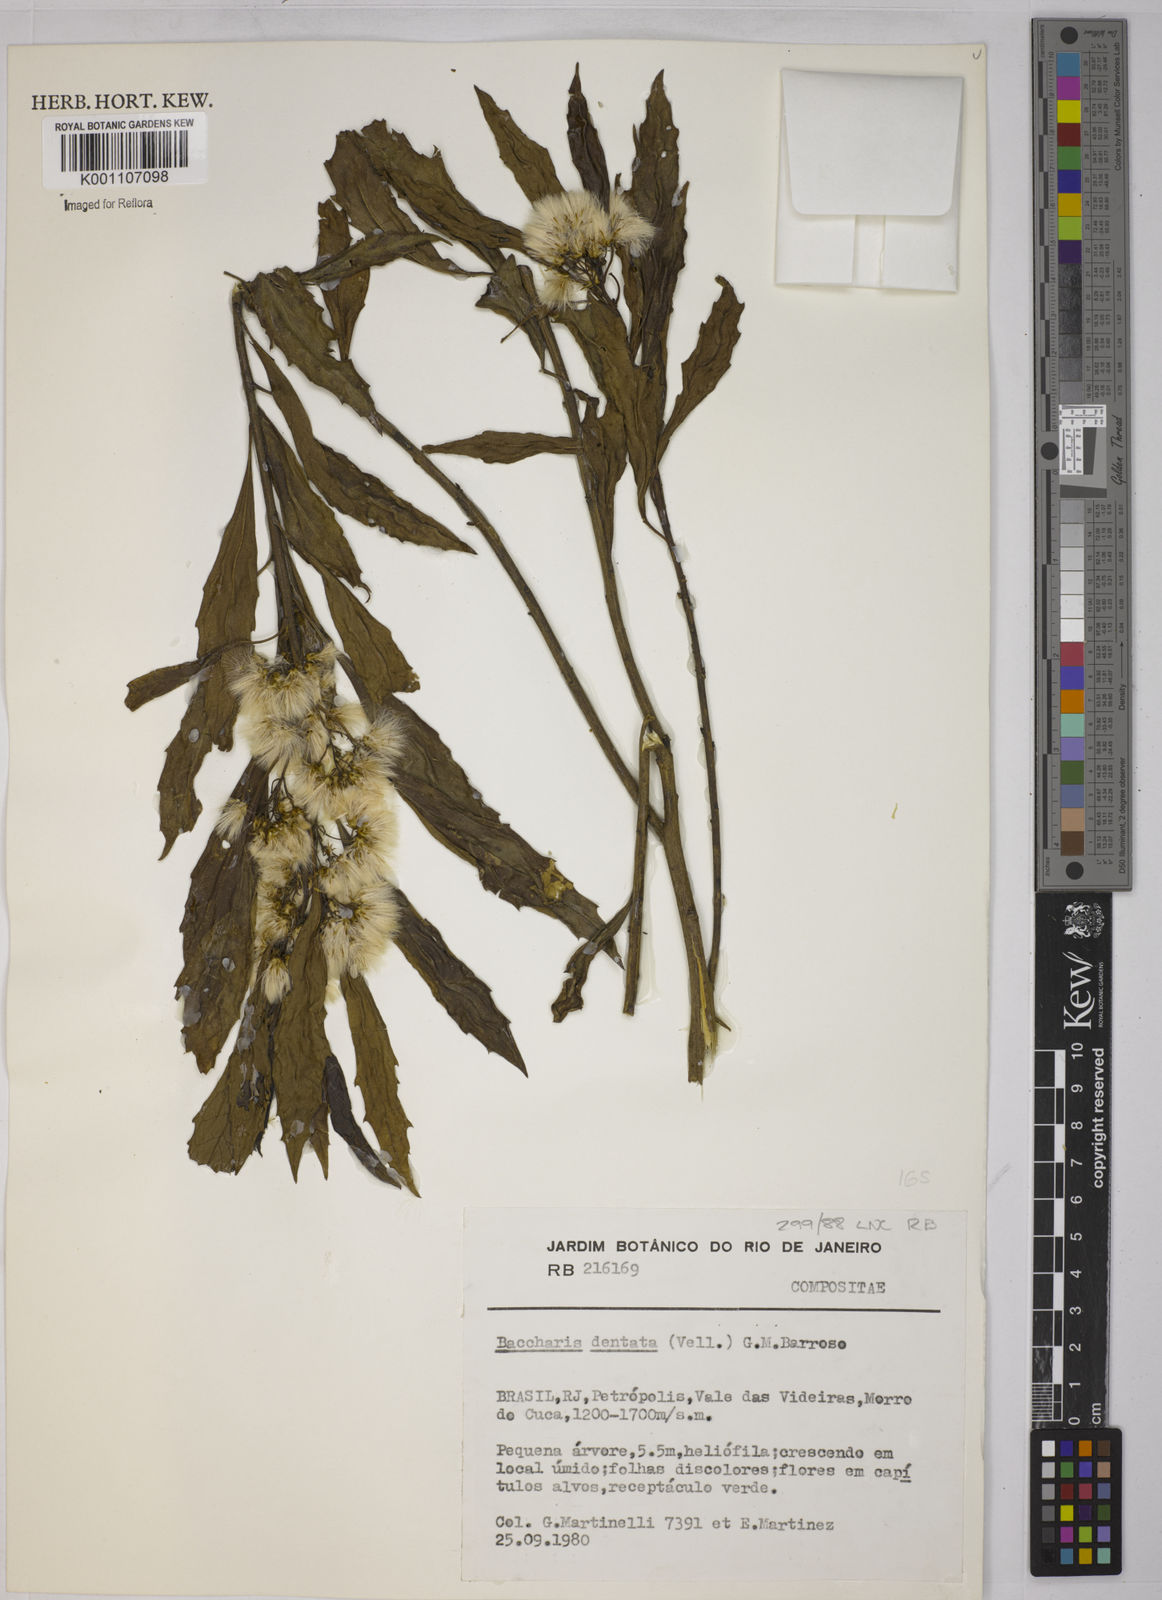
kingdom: Plantae
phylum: Tracheophyta
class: Magnoliopsida
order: Asterales
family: Asteraceae
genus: Baccharis
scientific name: Baccharis dentata
